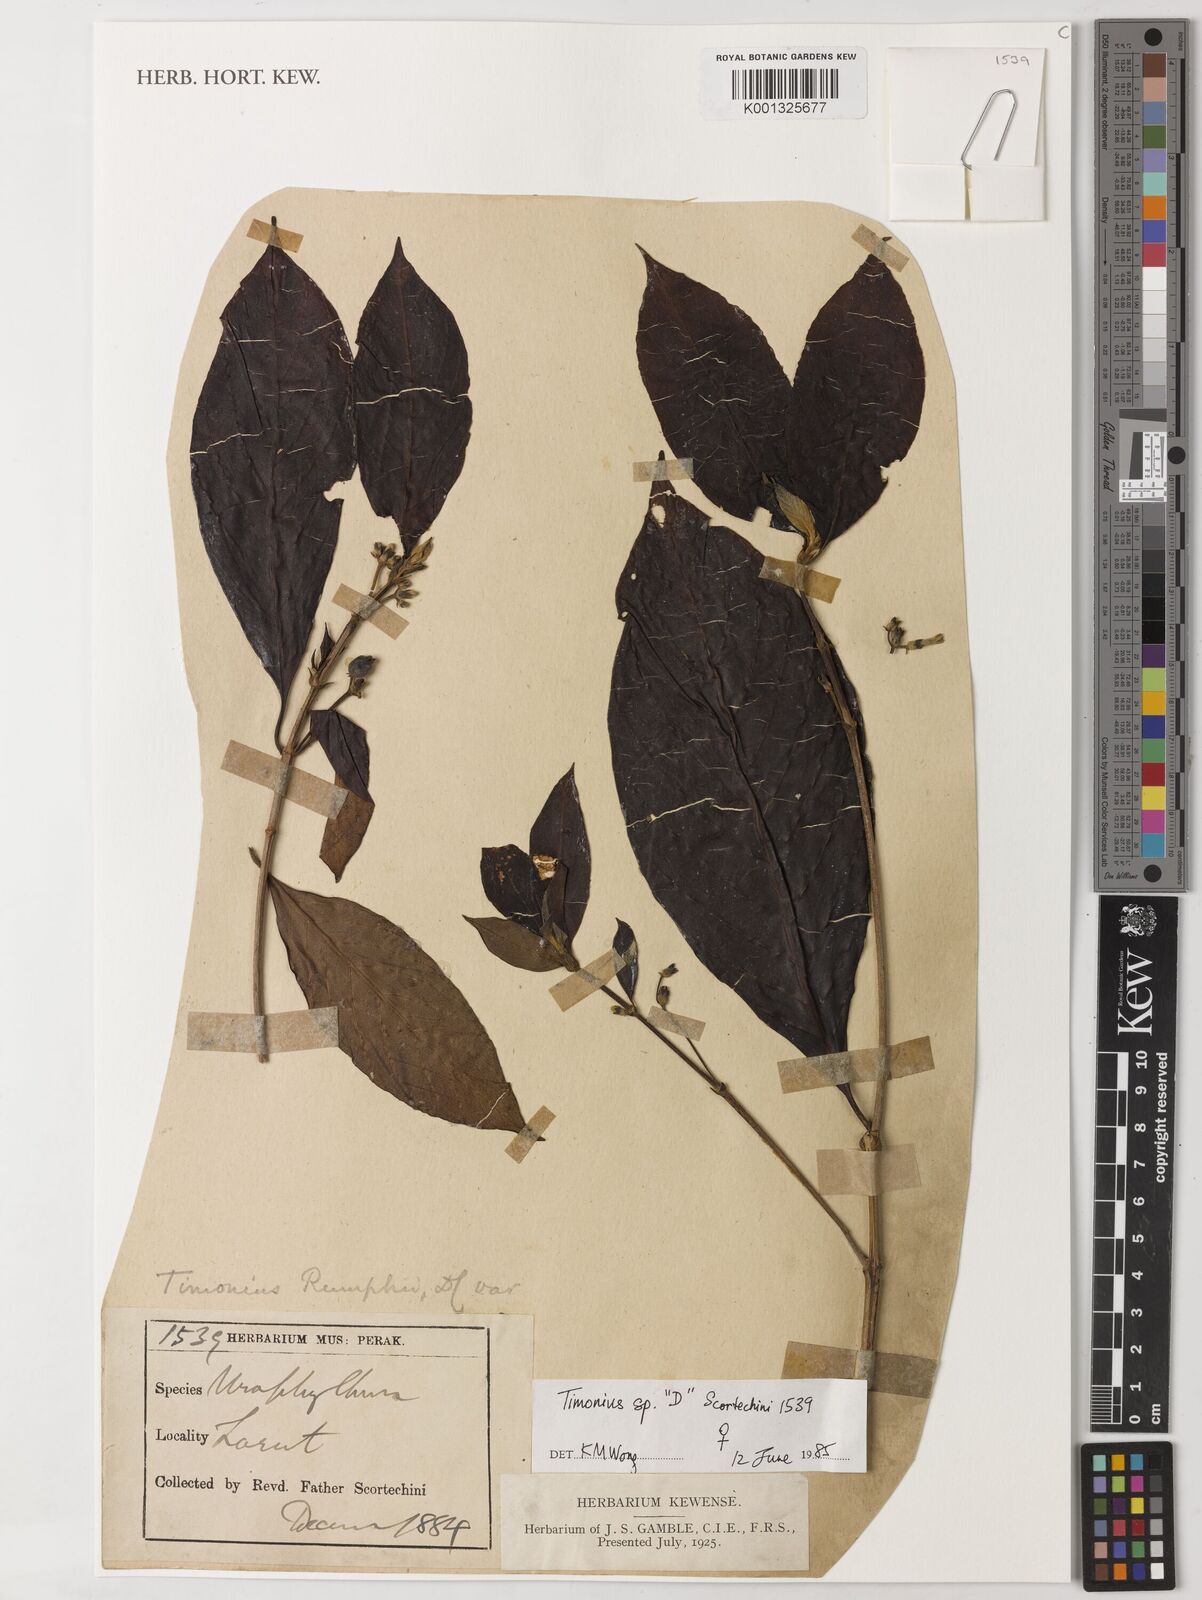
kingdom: Plantae
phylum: Tracheophyta
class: Magnoliopsida
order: Gentianales
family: Rubiaceae
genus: Timonius
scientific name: Timonius
